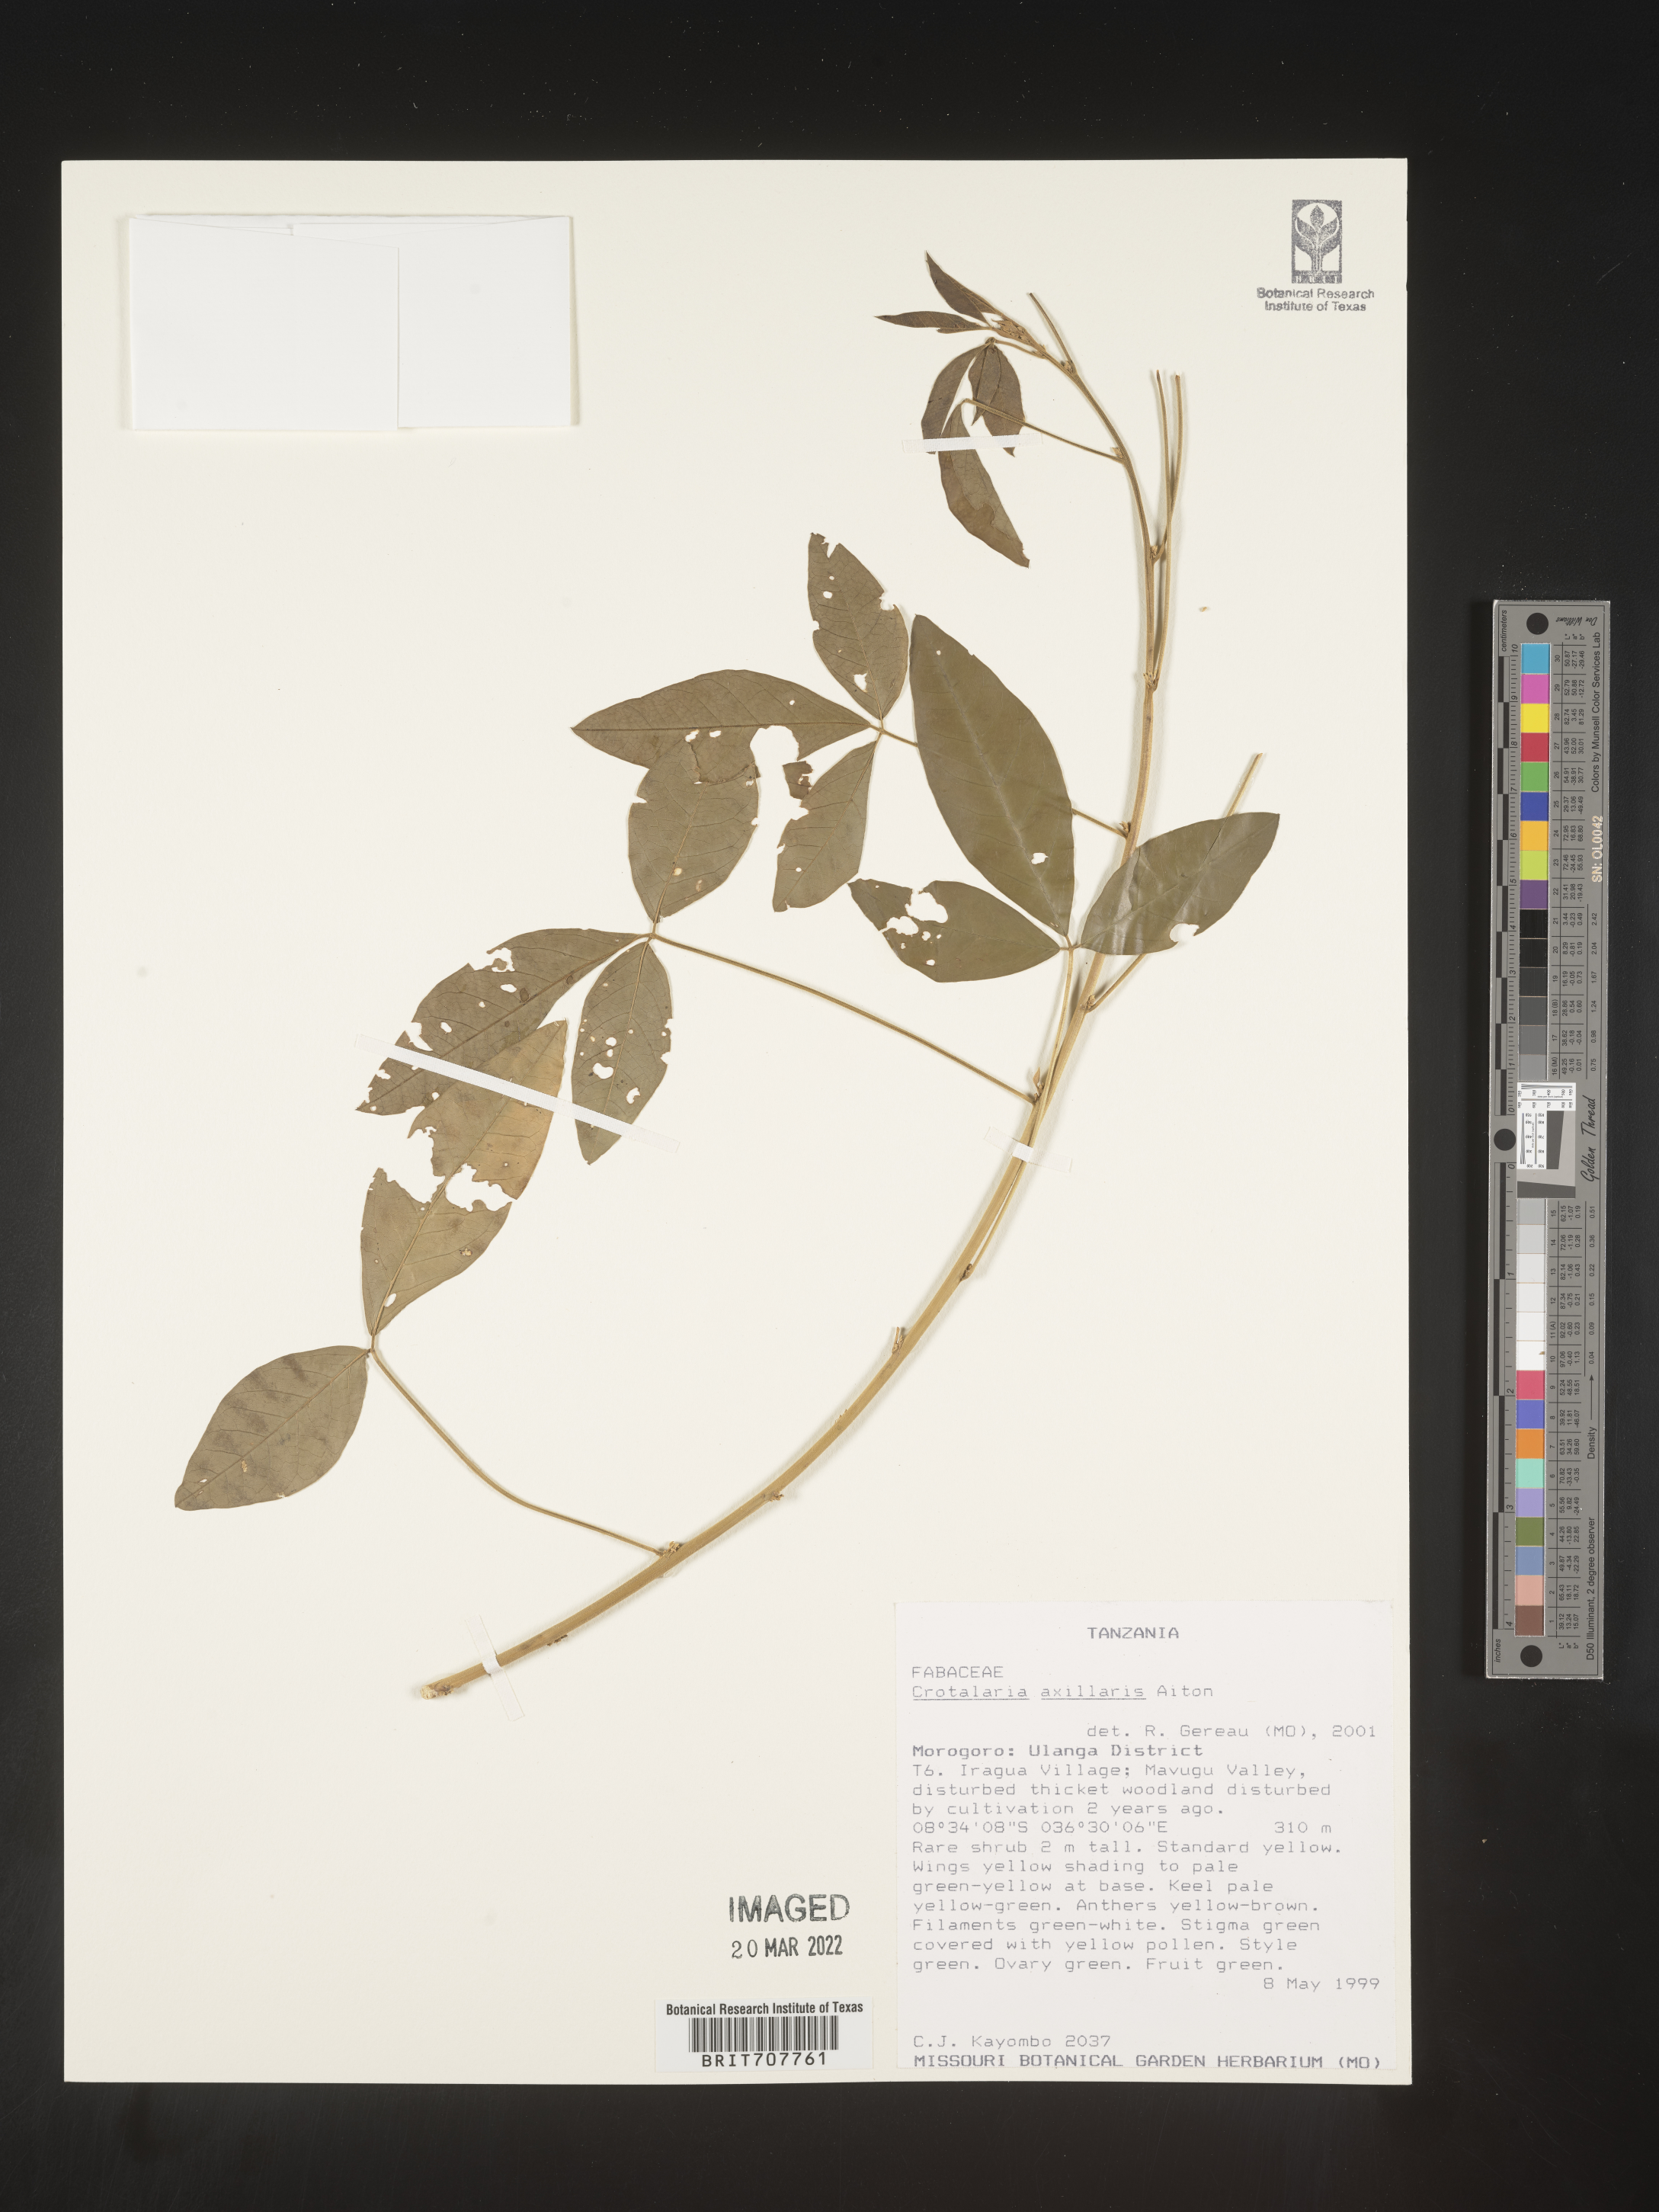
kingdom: Plantae
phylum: Tracheophyta
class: Magnoliopsida
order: Fabales
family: Fabaceae
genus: Crotalaria
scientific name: Crotalaria
